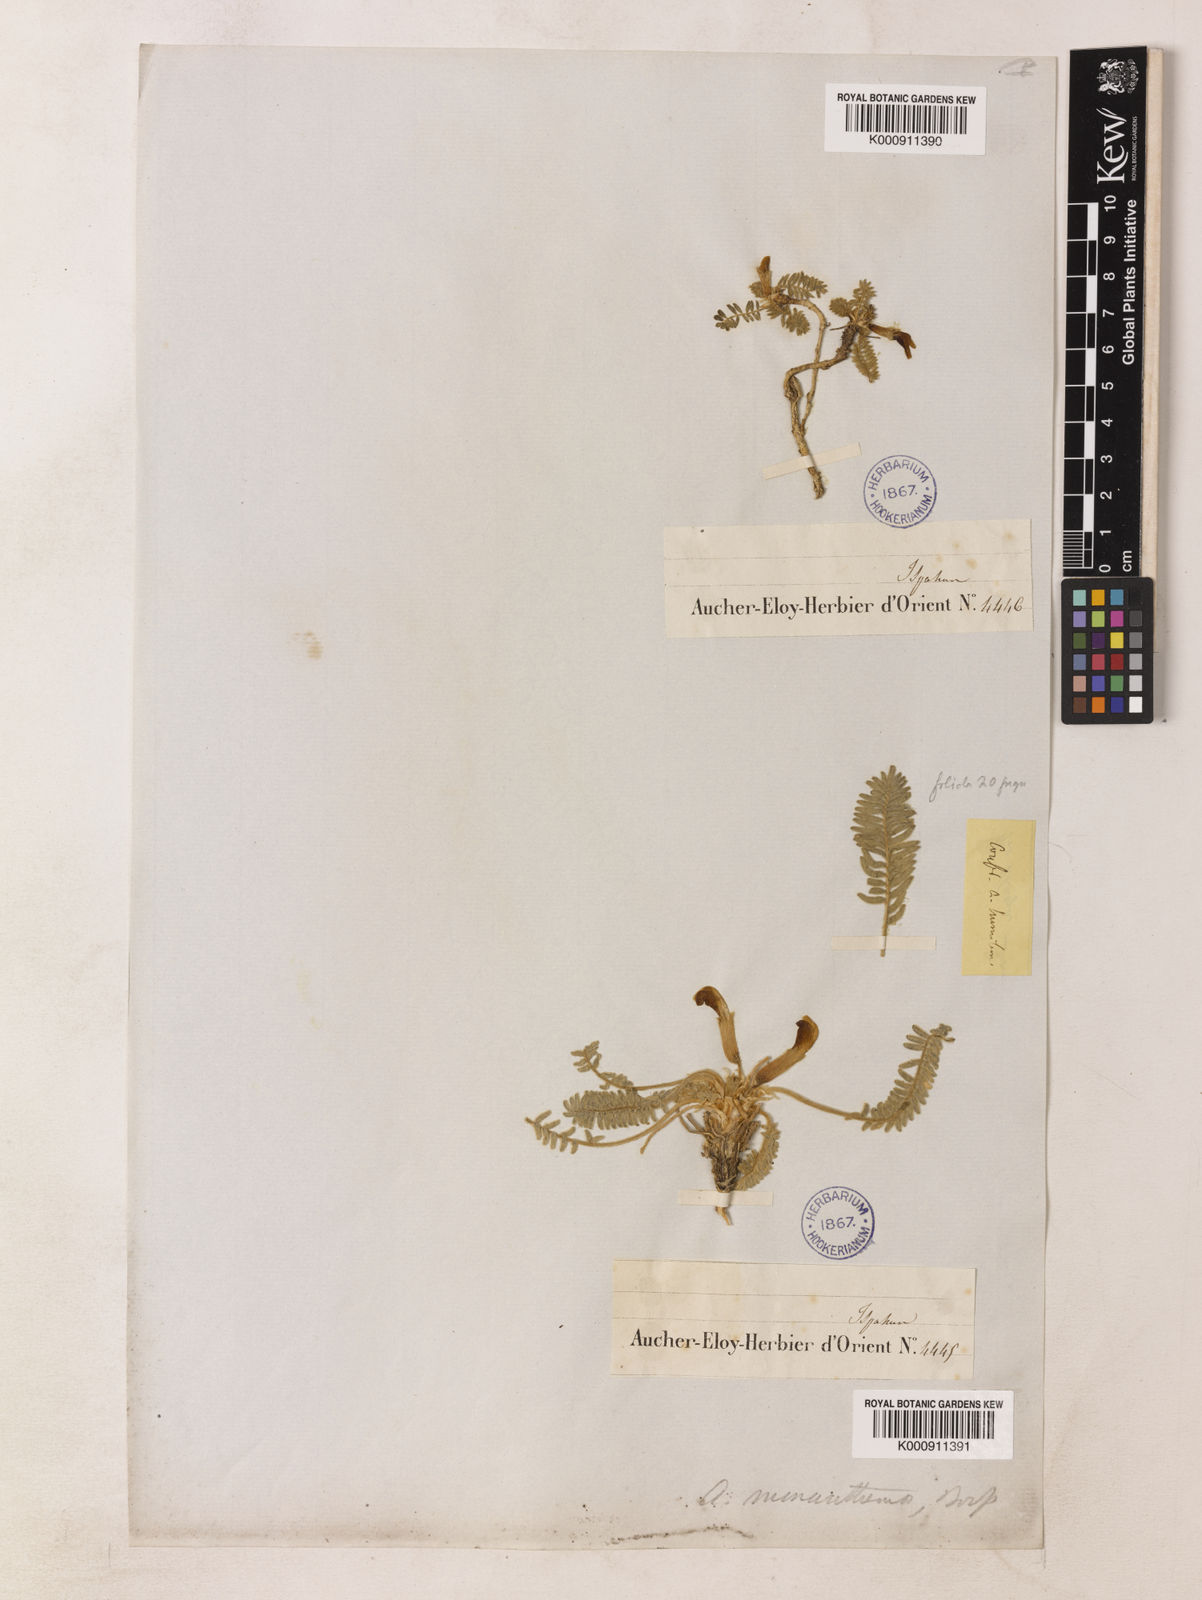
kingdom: Plantae
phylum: Tracheophyta
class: Magnoliopsida
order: Fabales
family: Fabaceae
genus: Astragalus
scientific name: Astragalus monanthemus
